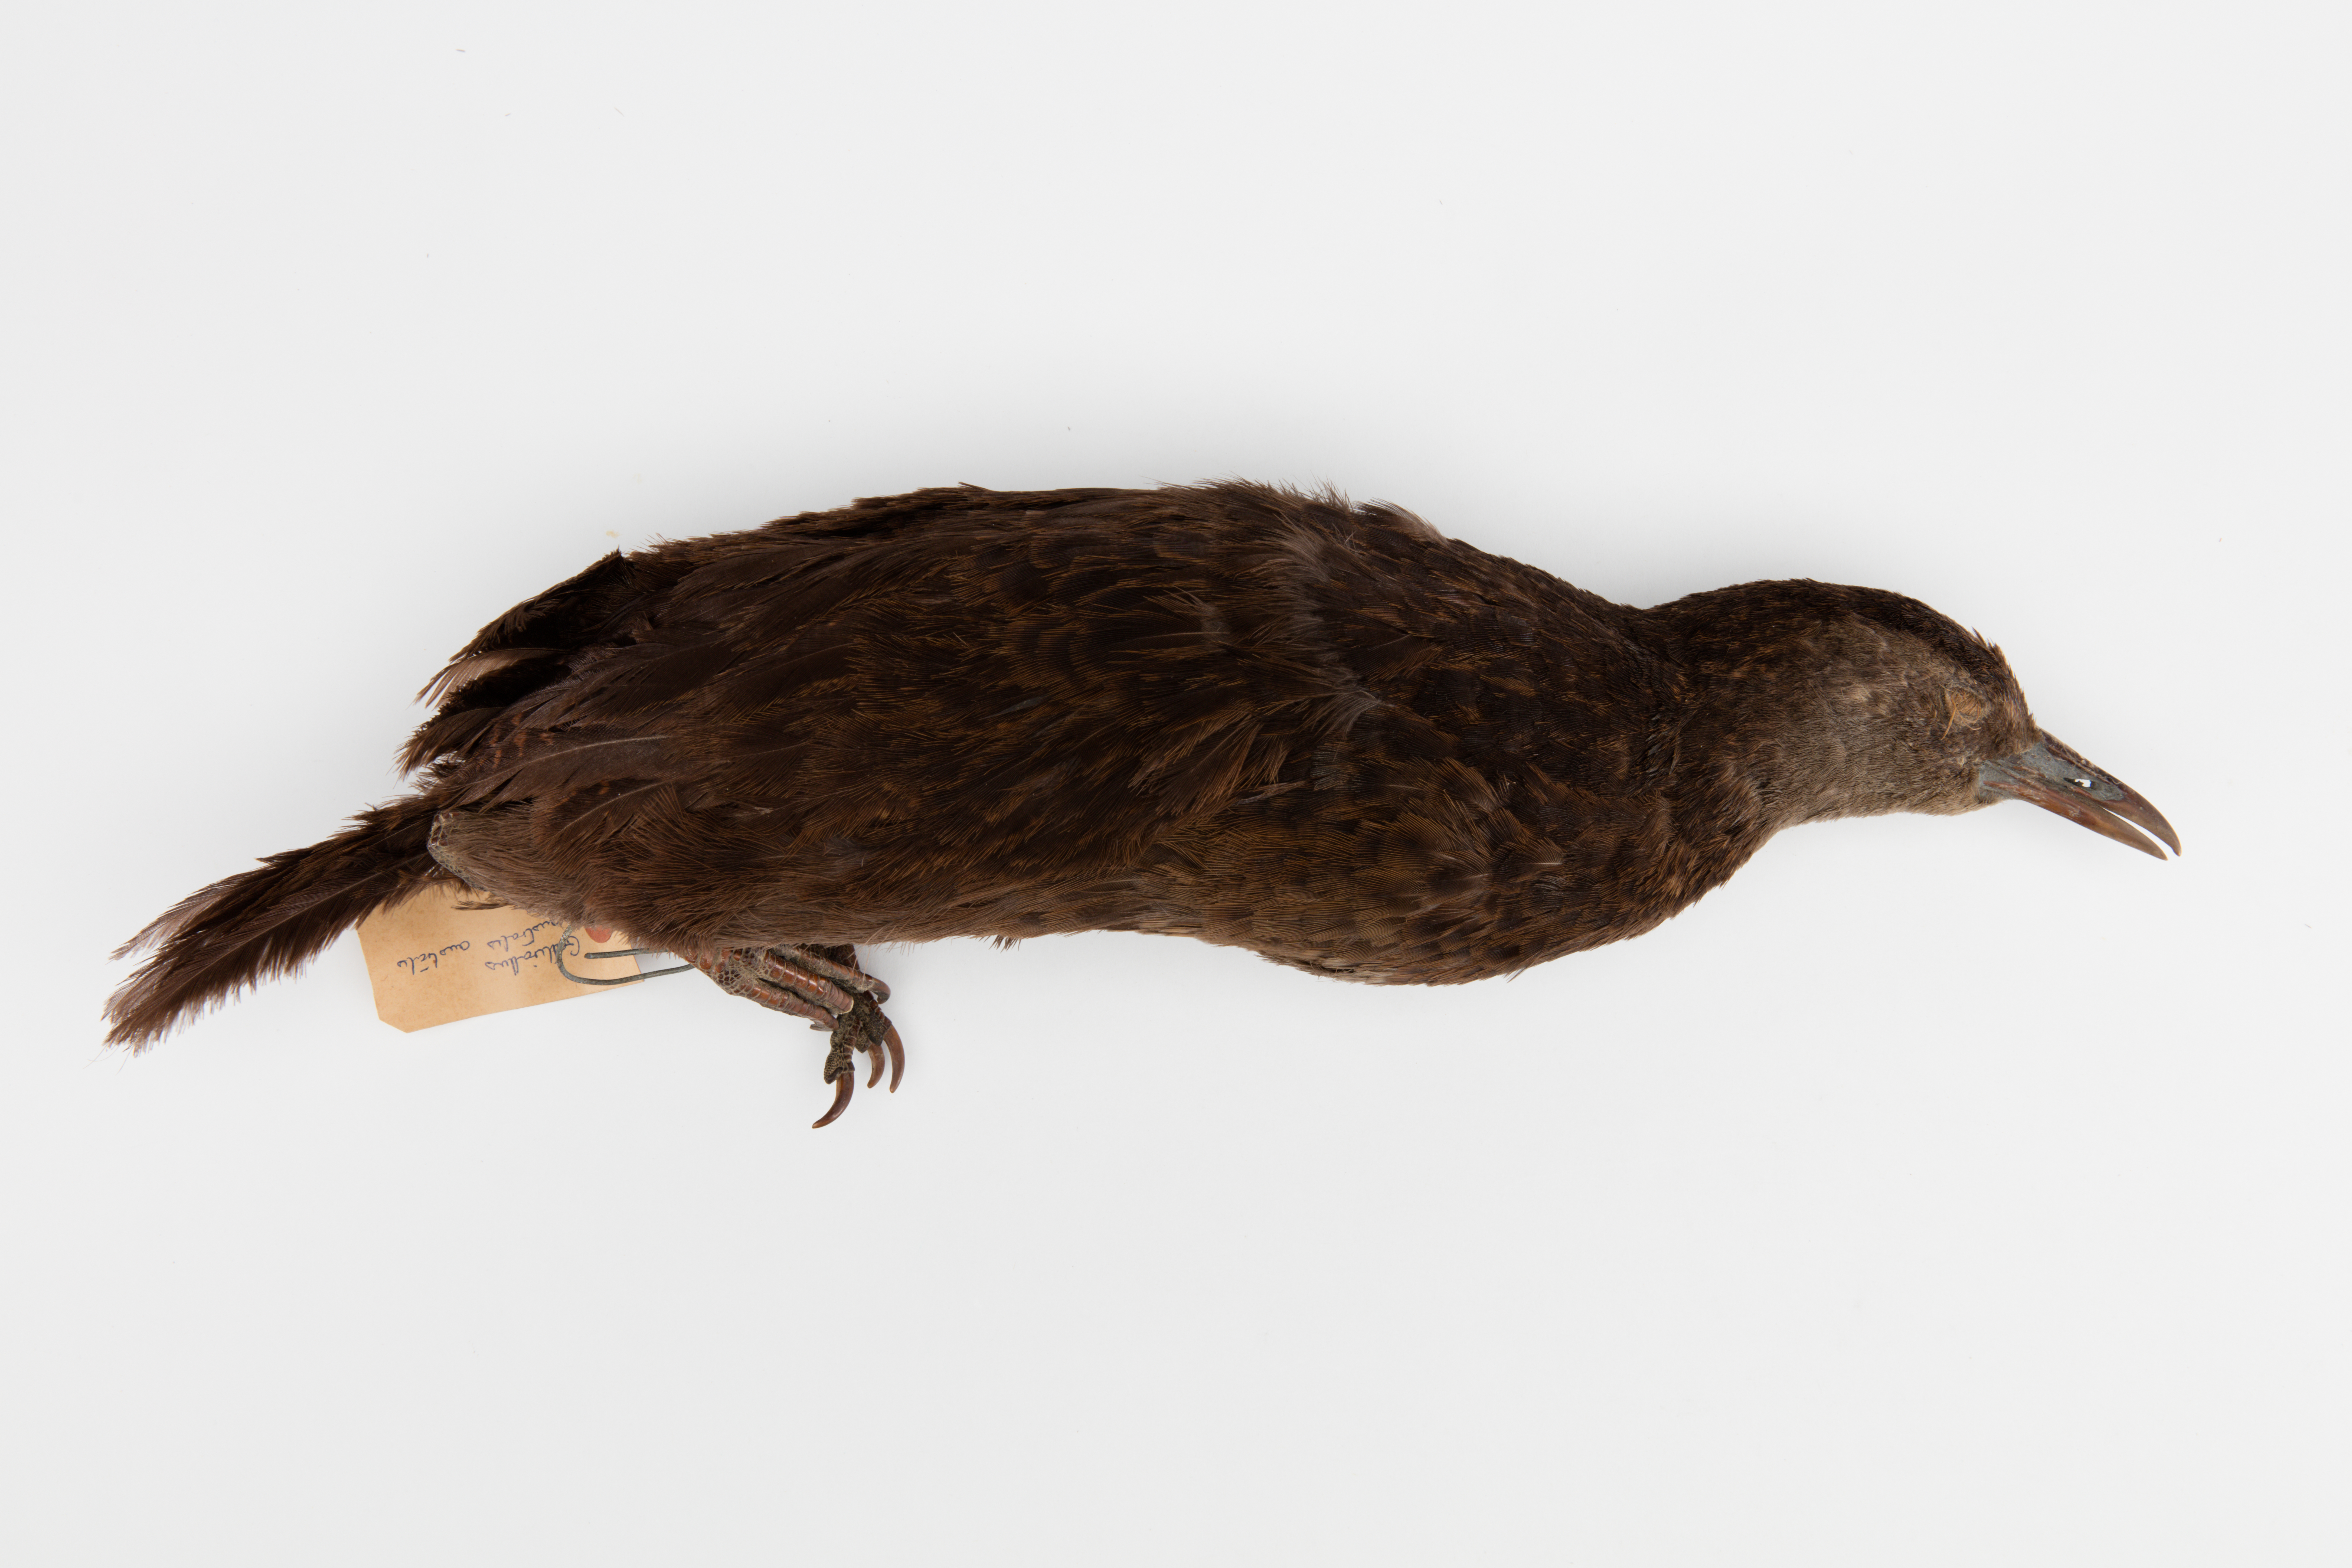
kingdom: Animalia
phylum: Chordata
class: Aves
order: Gruiformes
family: Rallidae
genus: Gallirallus
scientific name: Gallirallus australis
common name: Weka
